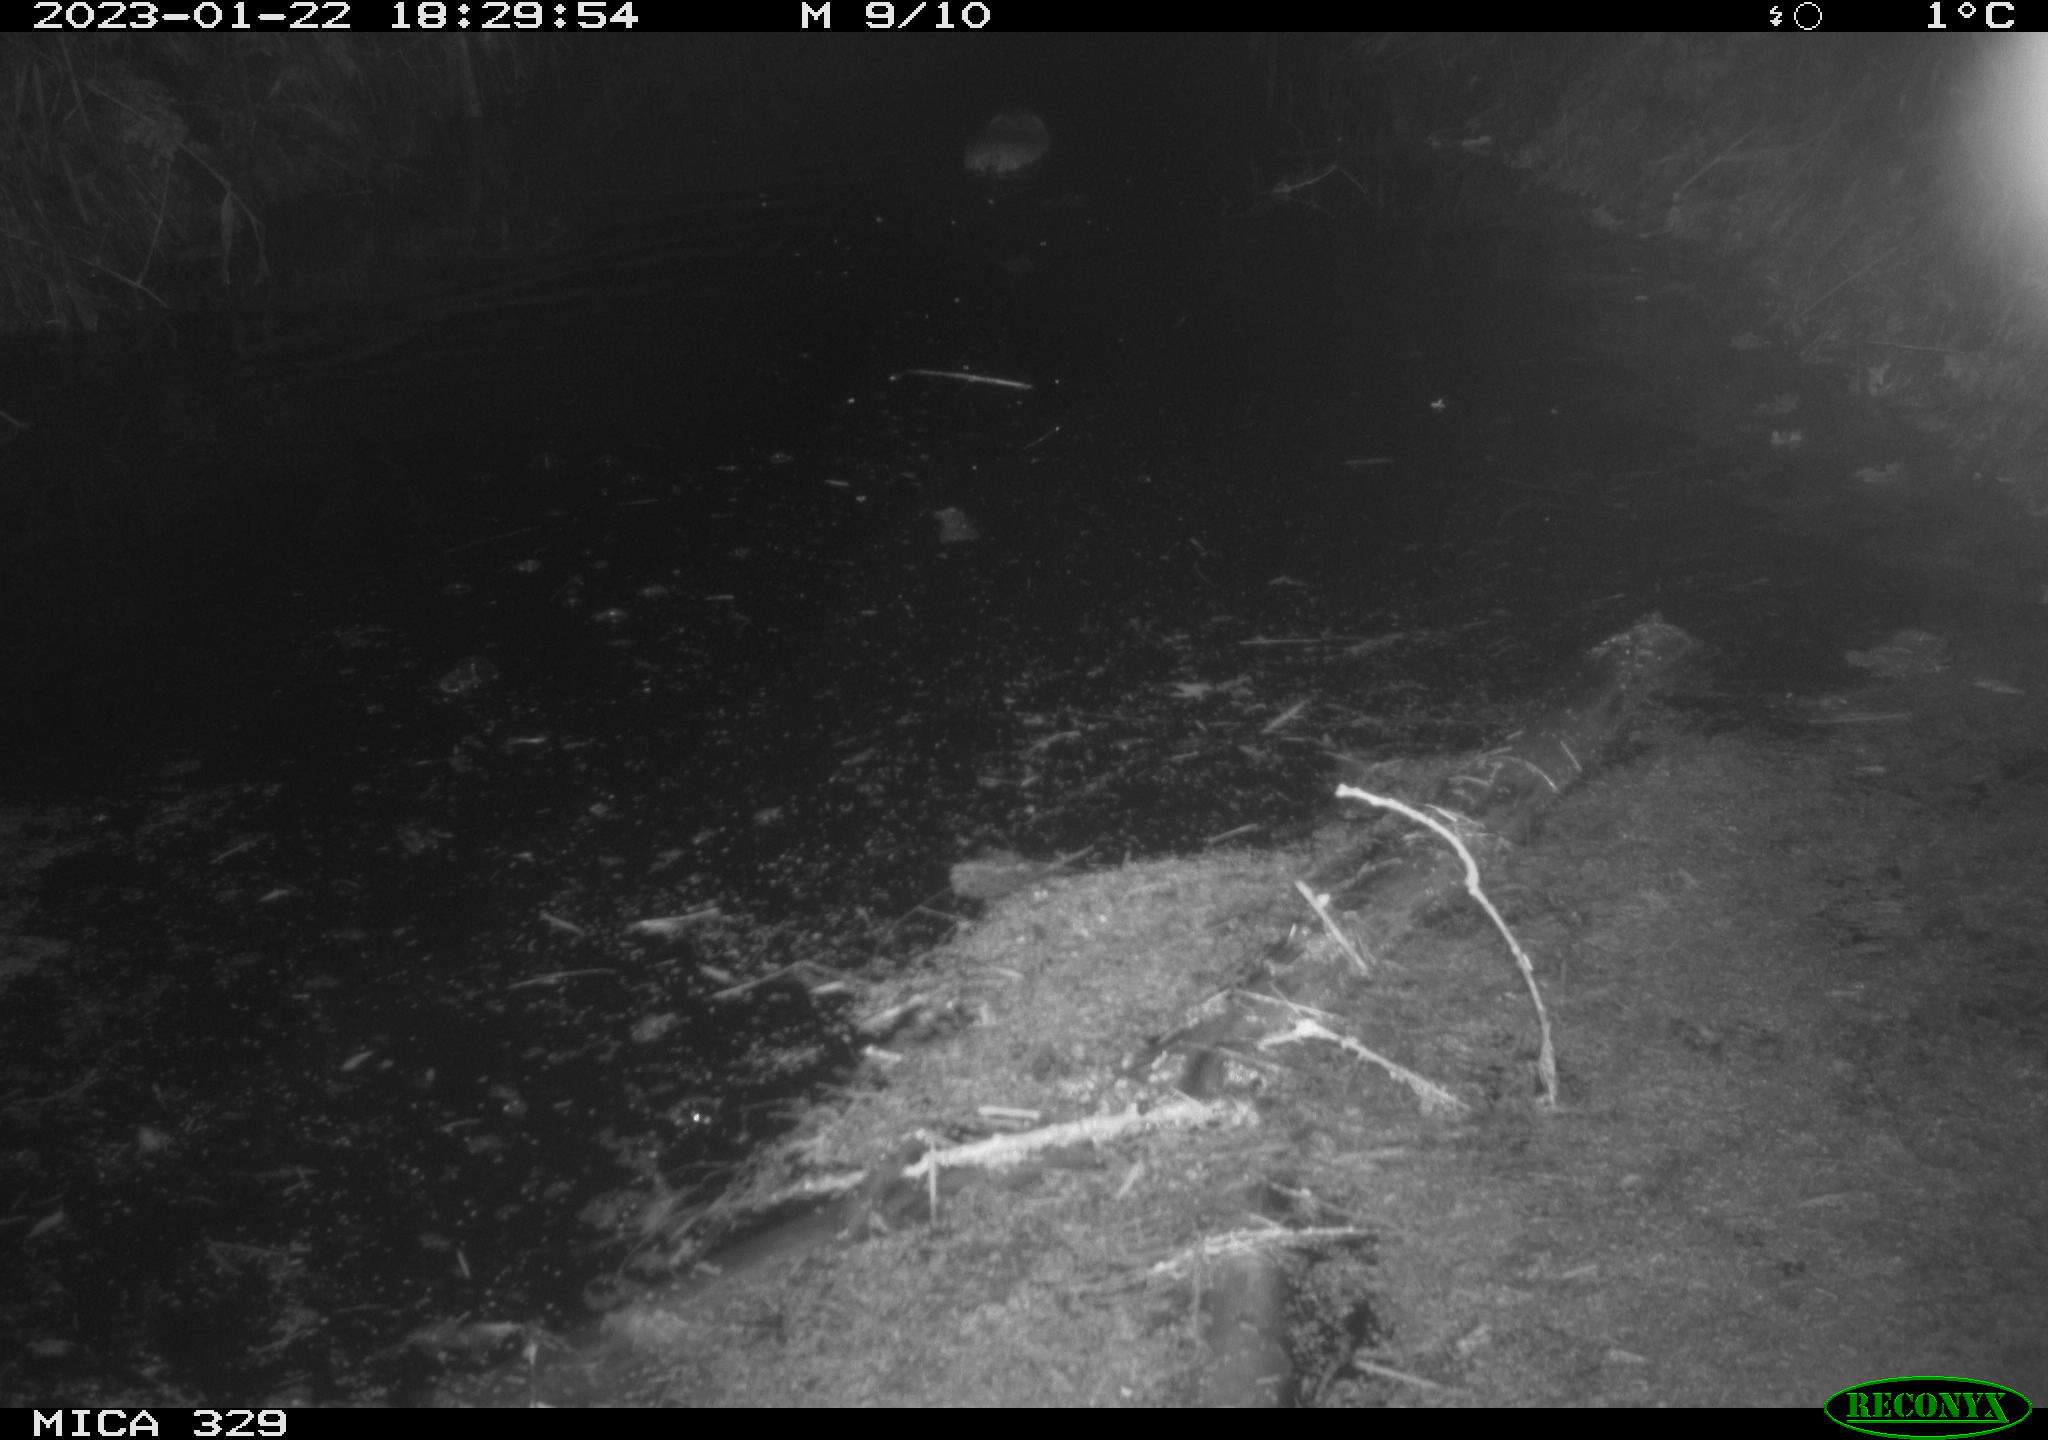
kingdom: Animalia
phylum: Chordata
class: Mammalia
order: Rodentia
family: Cricetidae
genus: Ondatra
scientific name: Ondatra zibethicus
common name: Muskrat
